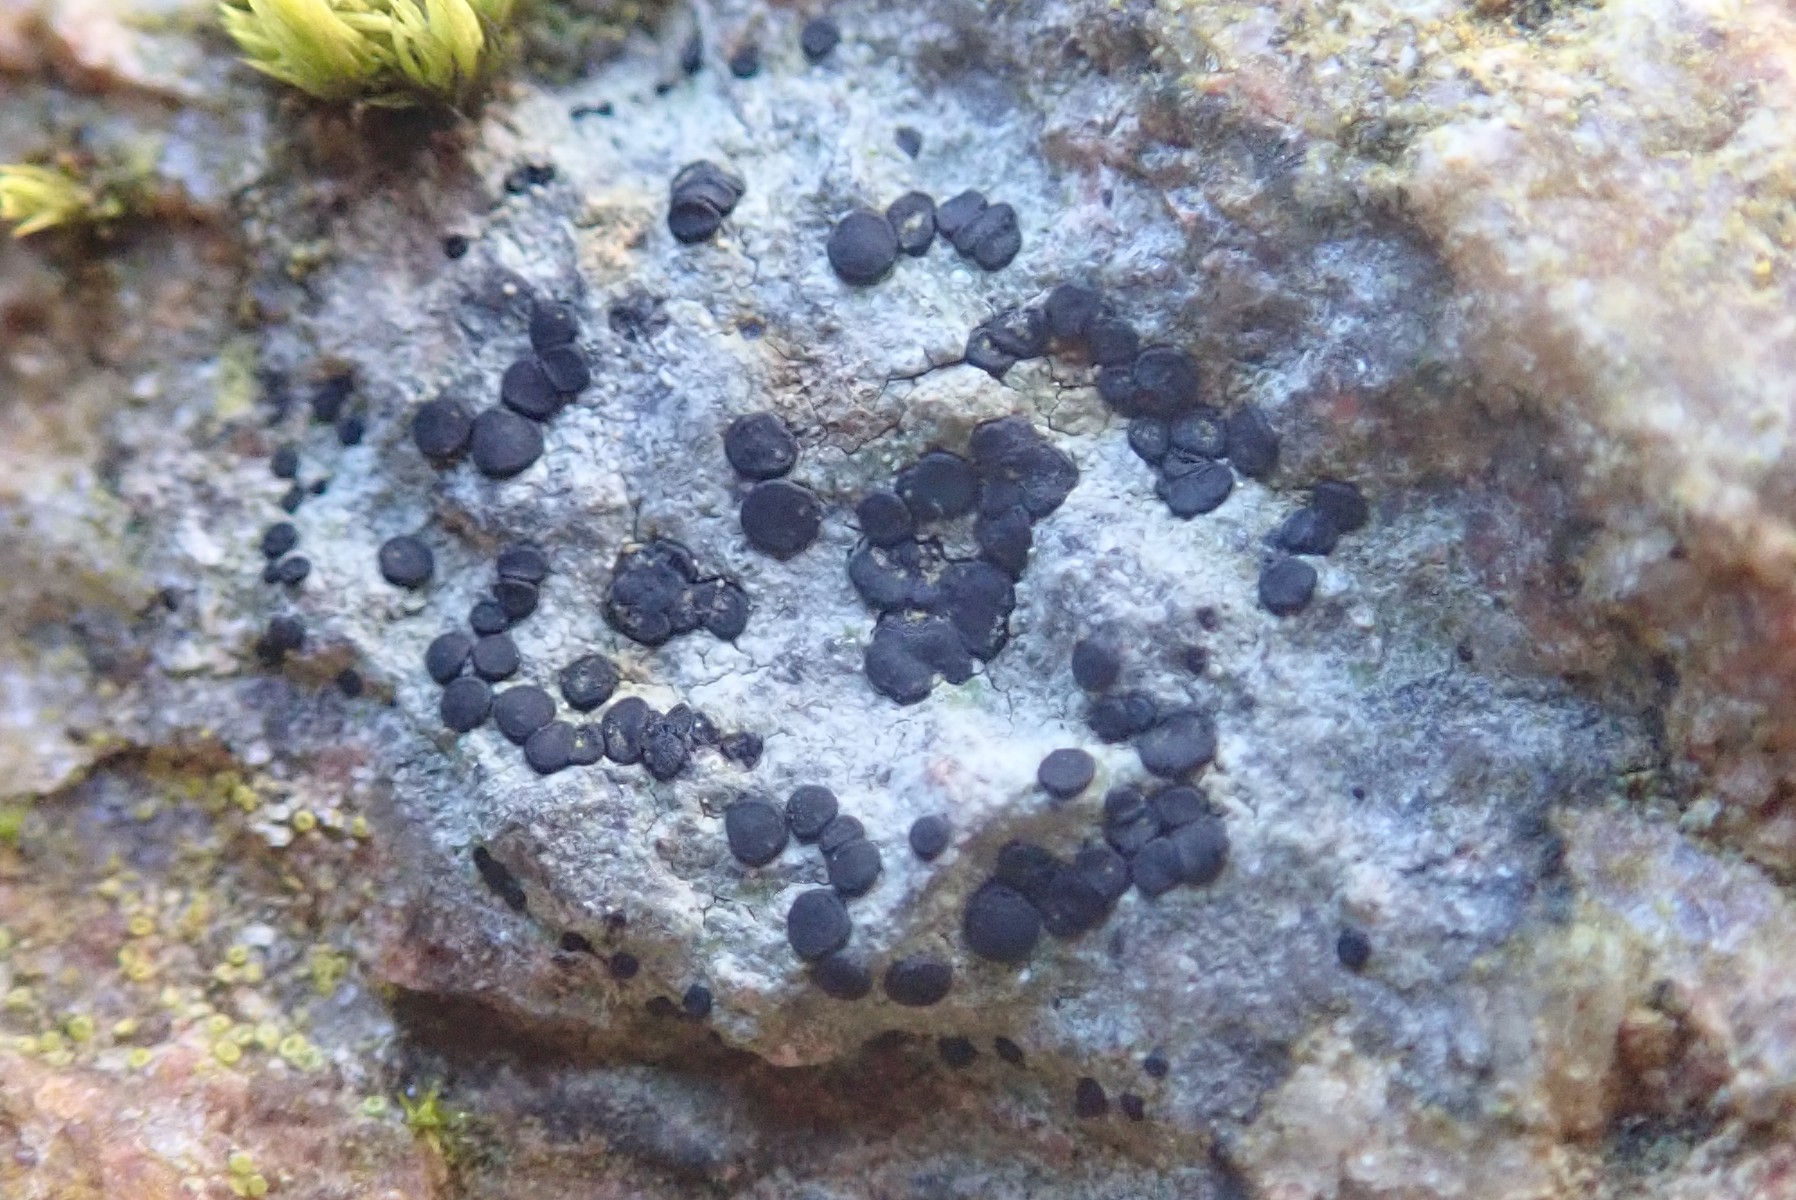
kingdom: Fungi
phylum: Ascomycota
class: Lecanoromycetes
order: Lecanorales
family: Parmeliaceae
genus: Lichen
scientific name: Lichen
